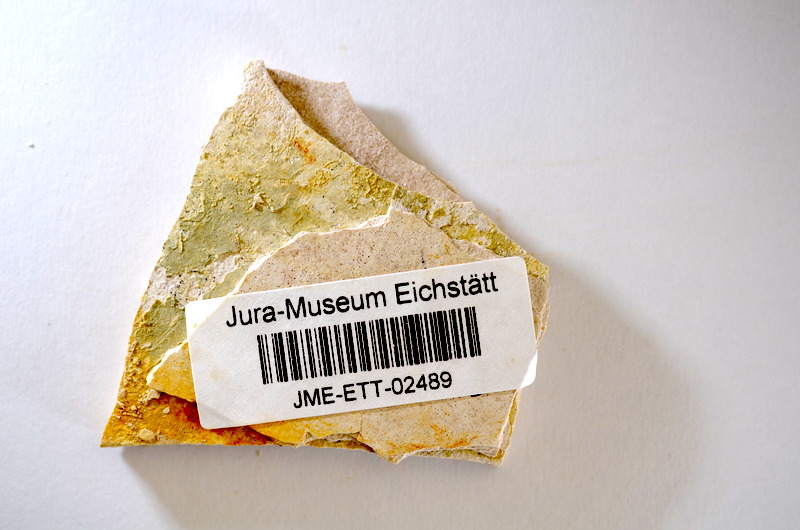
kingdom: Animalia
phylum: Chordata
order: Salmoniformes
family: Orthogonikleithridae
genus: Orthogonikleithrus
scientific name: Orthogonikleithrus hoelli
